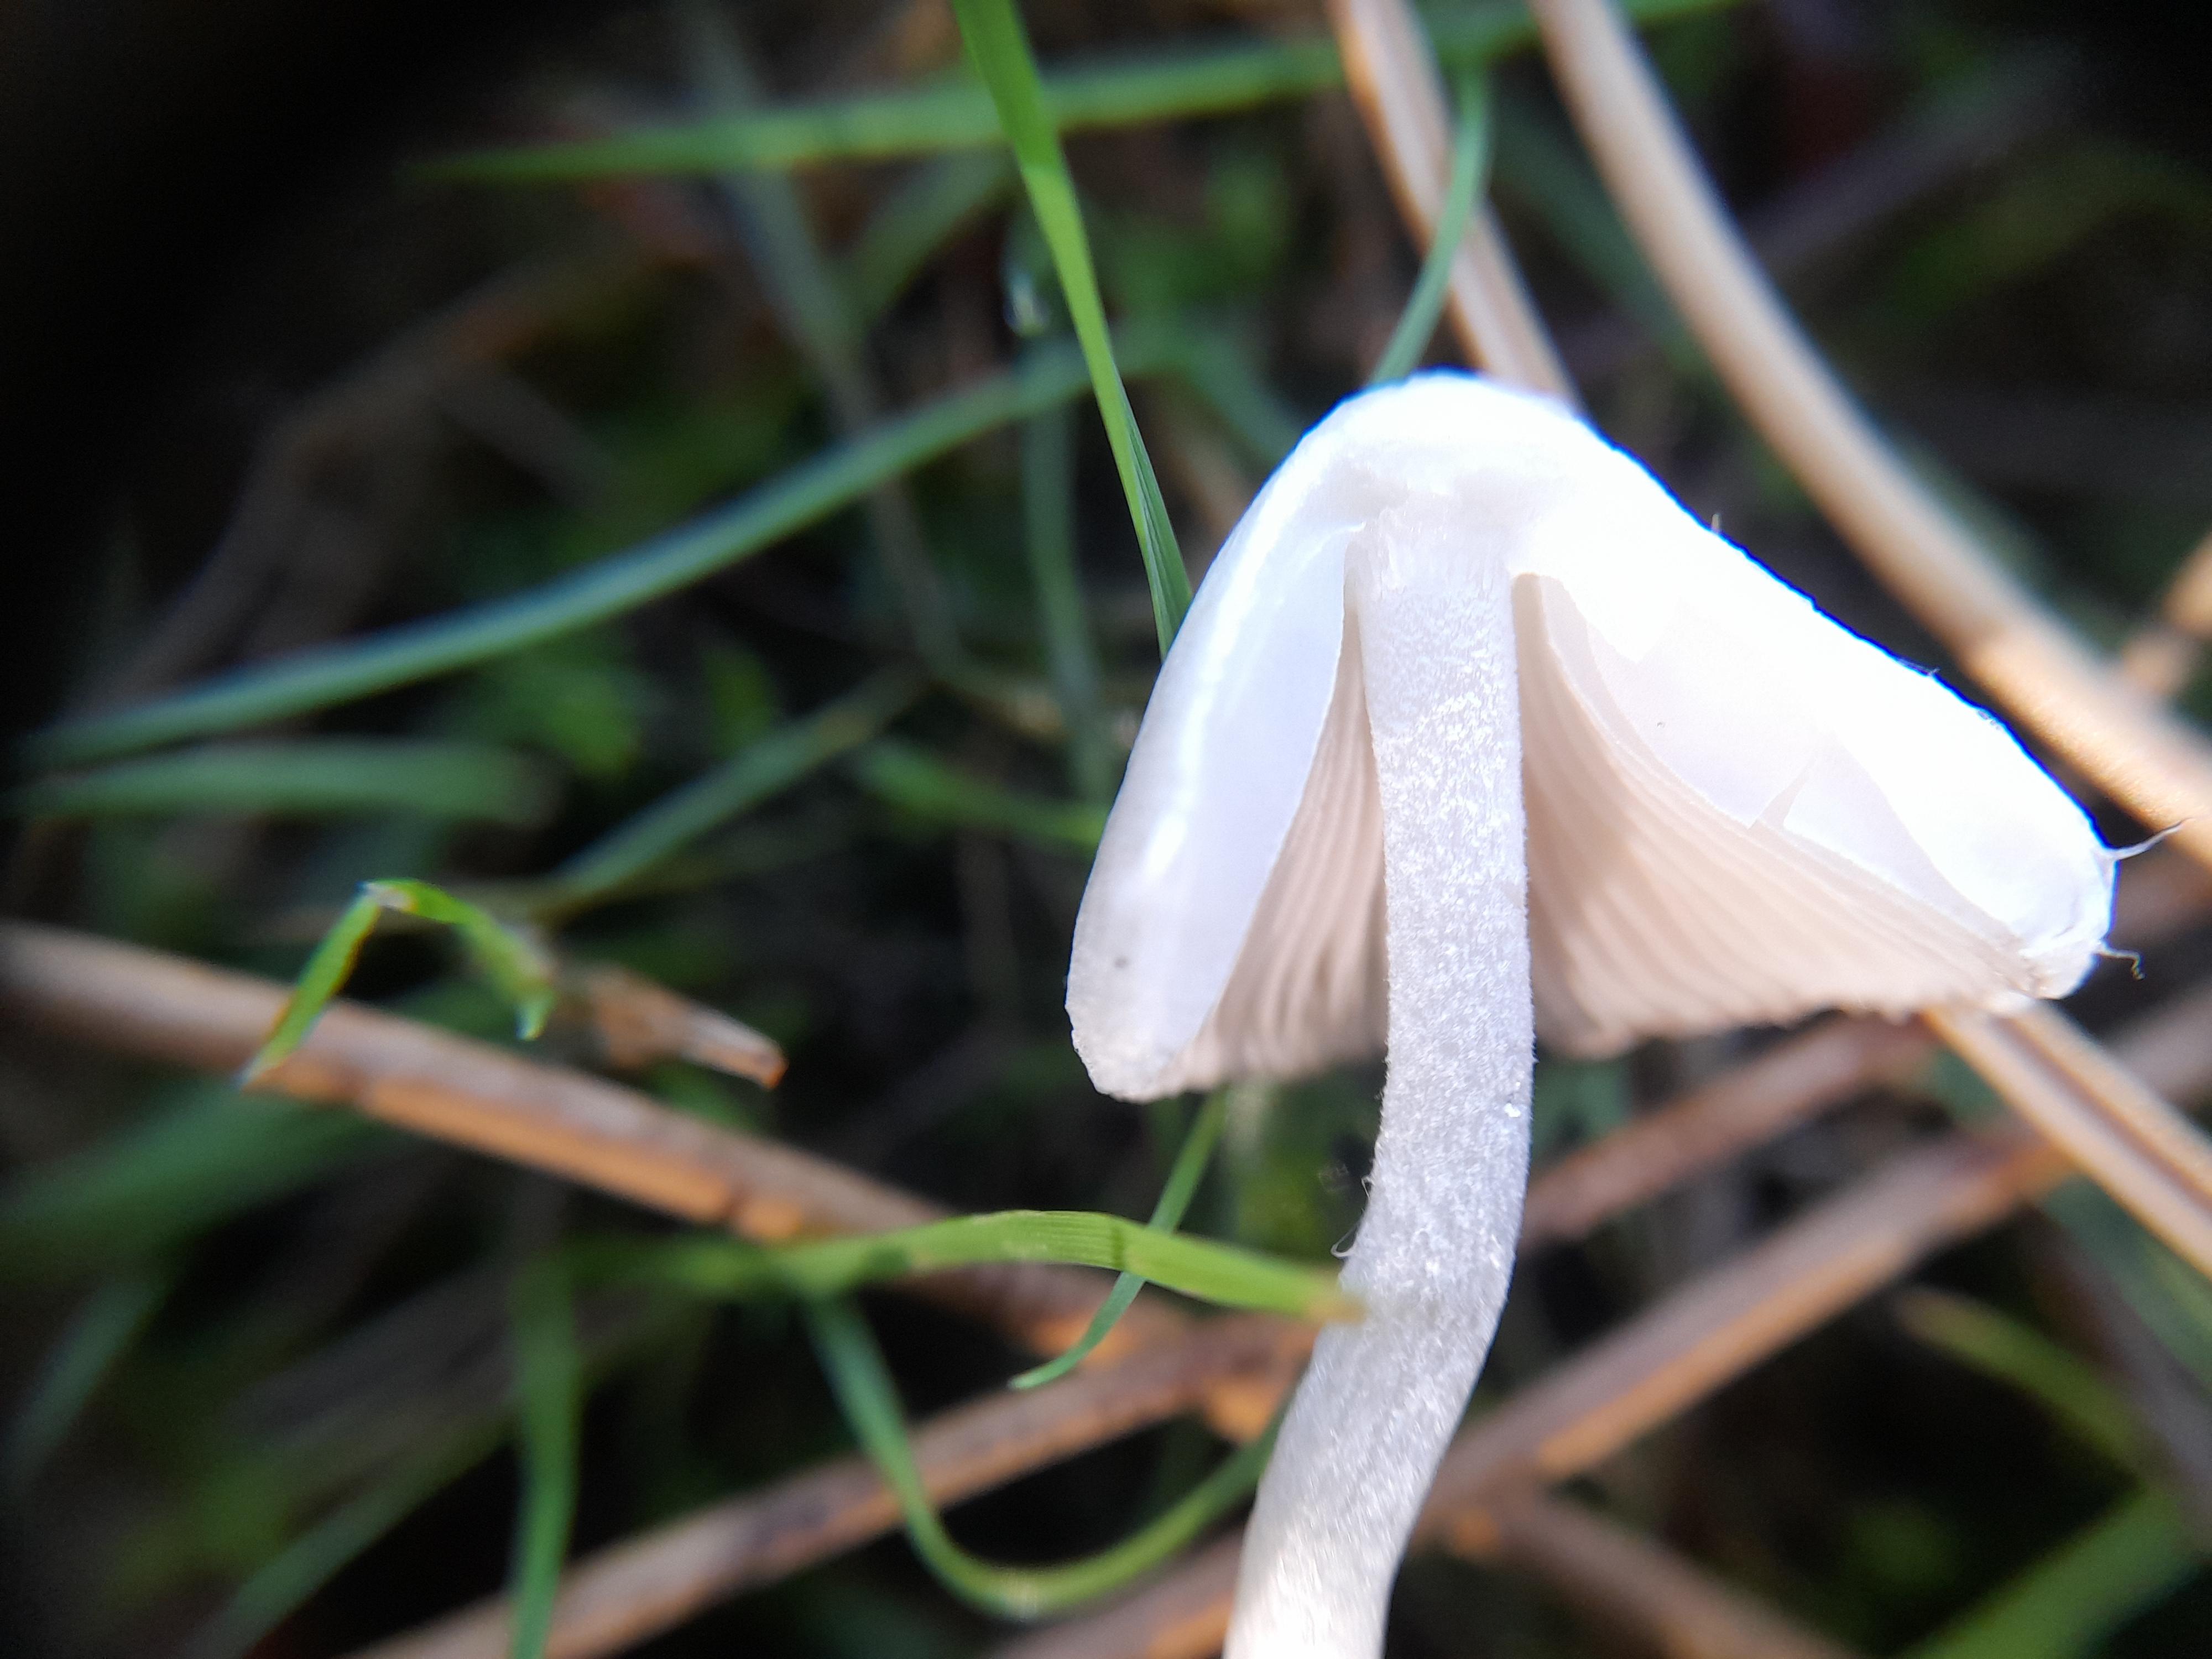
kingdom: Fungi
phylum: Basidiomycota
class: Agaricomycetes
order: Agaricales
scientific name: Agaricales
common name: champignonordenen
